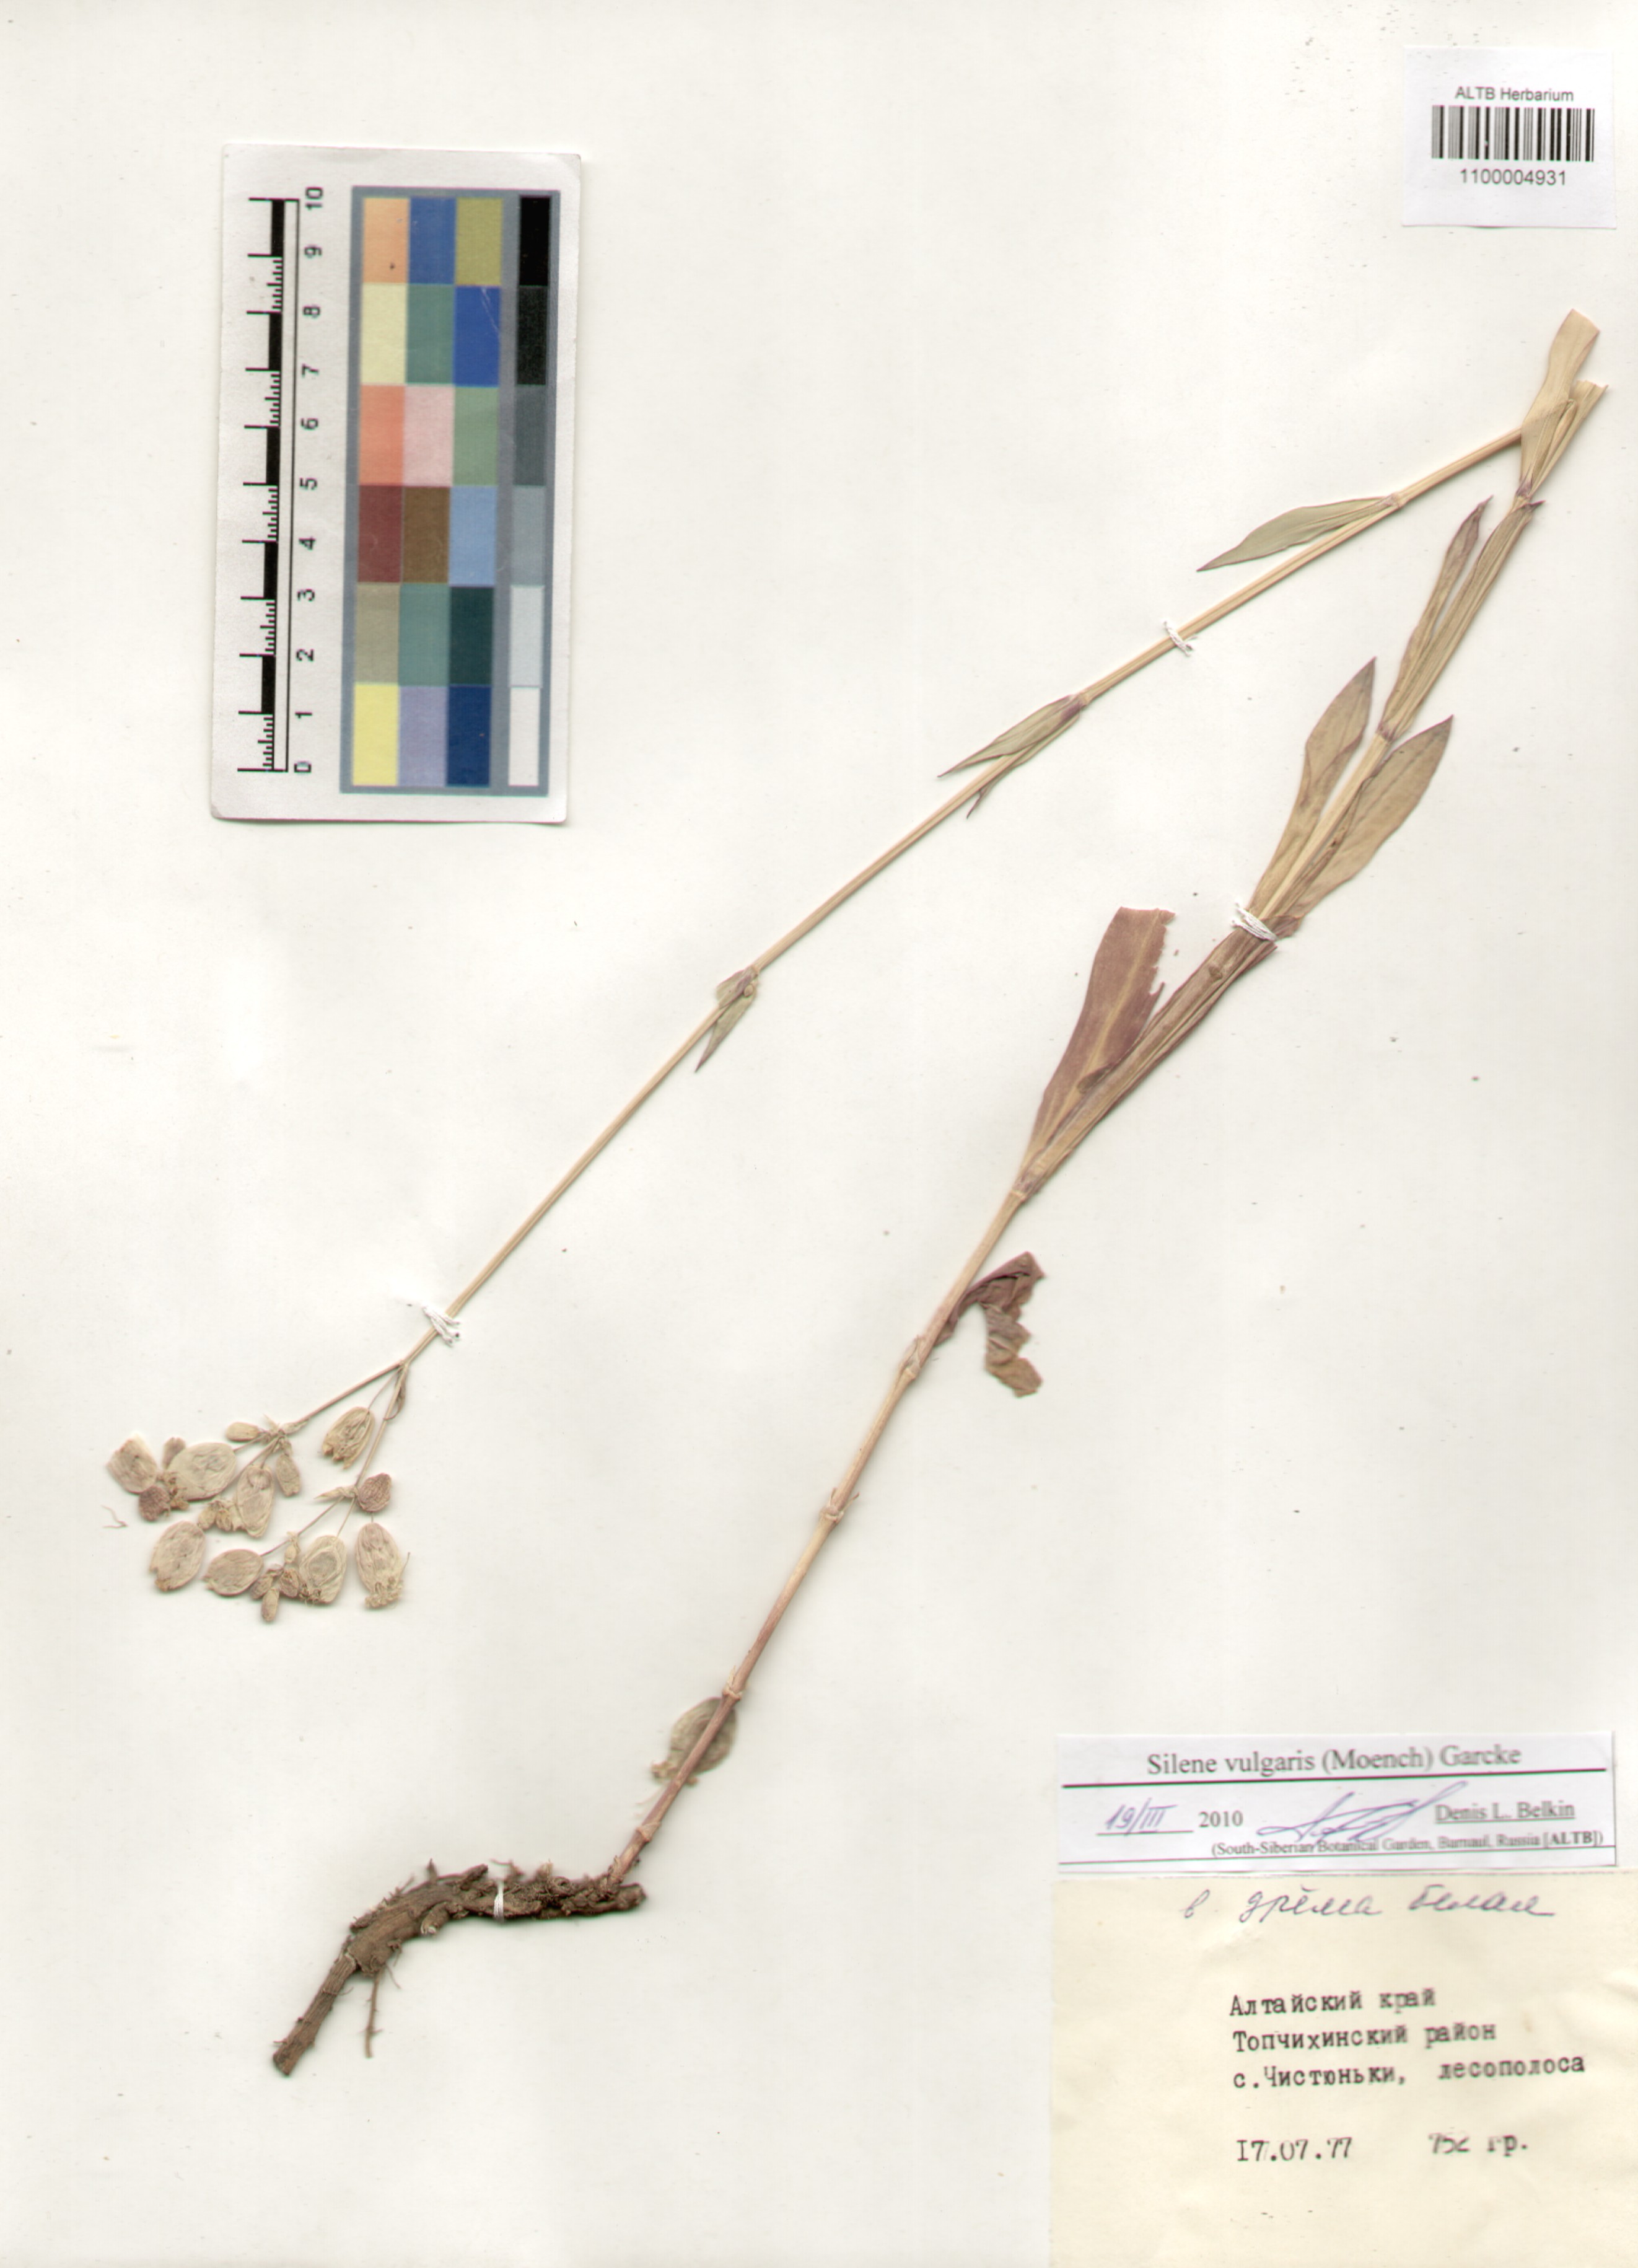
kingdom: Plantae
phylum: Tracheophyta
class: Magnoliopsida
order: Caryophyllales
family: Caryophyllaceae
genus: Silene
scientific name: Silene vulgaris
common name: Bladder campion
